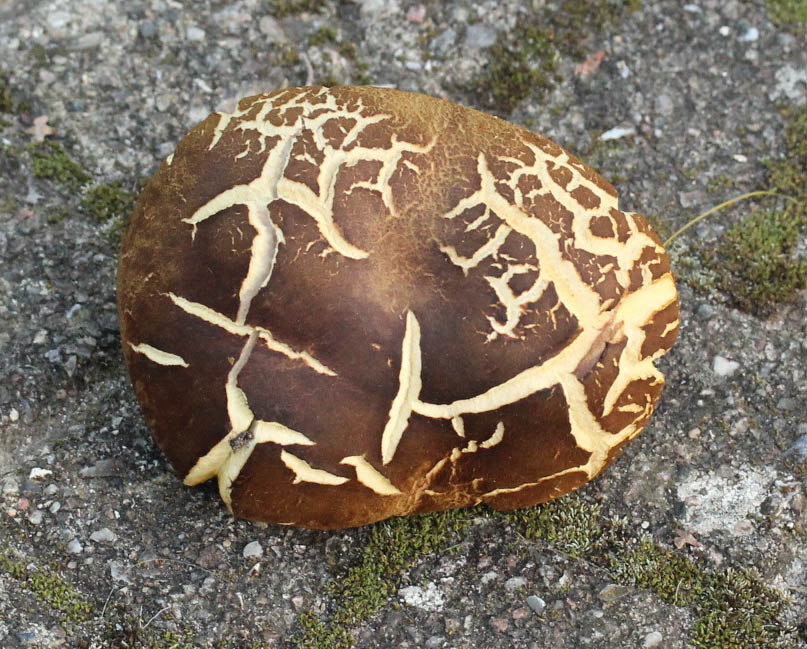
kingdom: Fungi
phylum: Basidiomycota
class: Agaricomycetes
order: Boletales
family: Boletaceae
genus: Xerocomus
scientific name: Xerocomus ferrugineus
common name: vaskeskinds-rørhat
